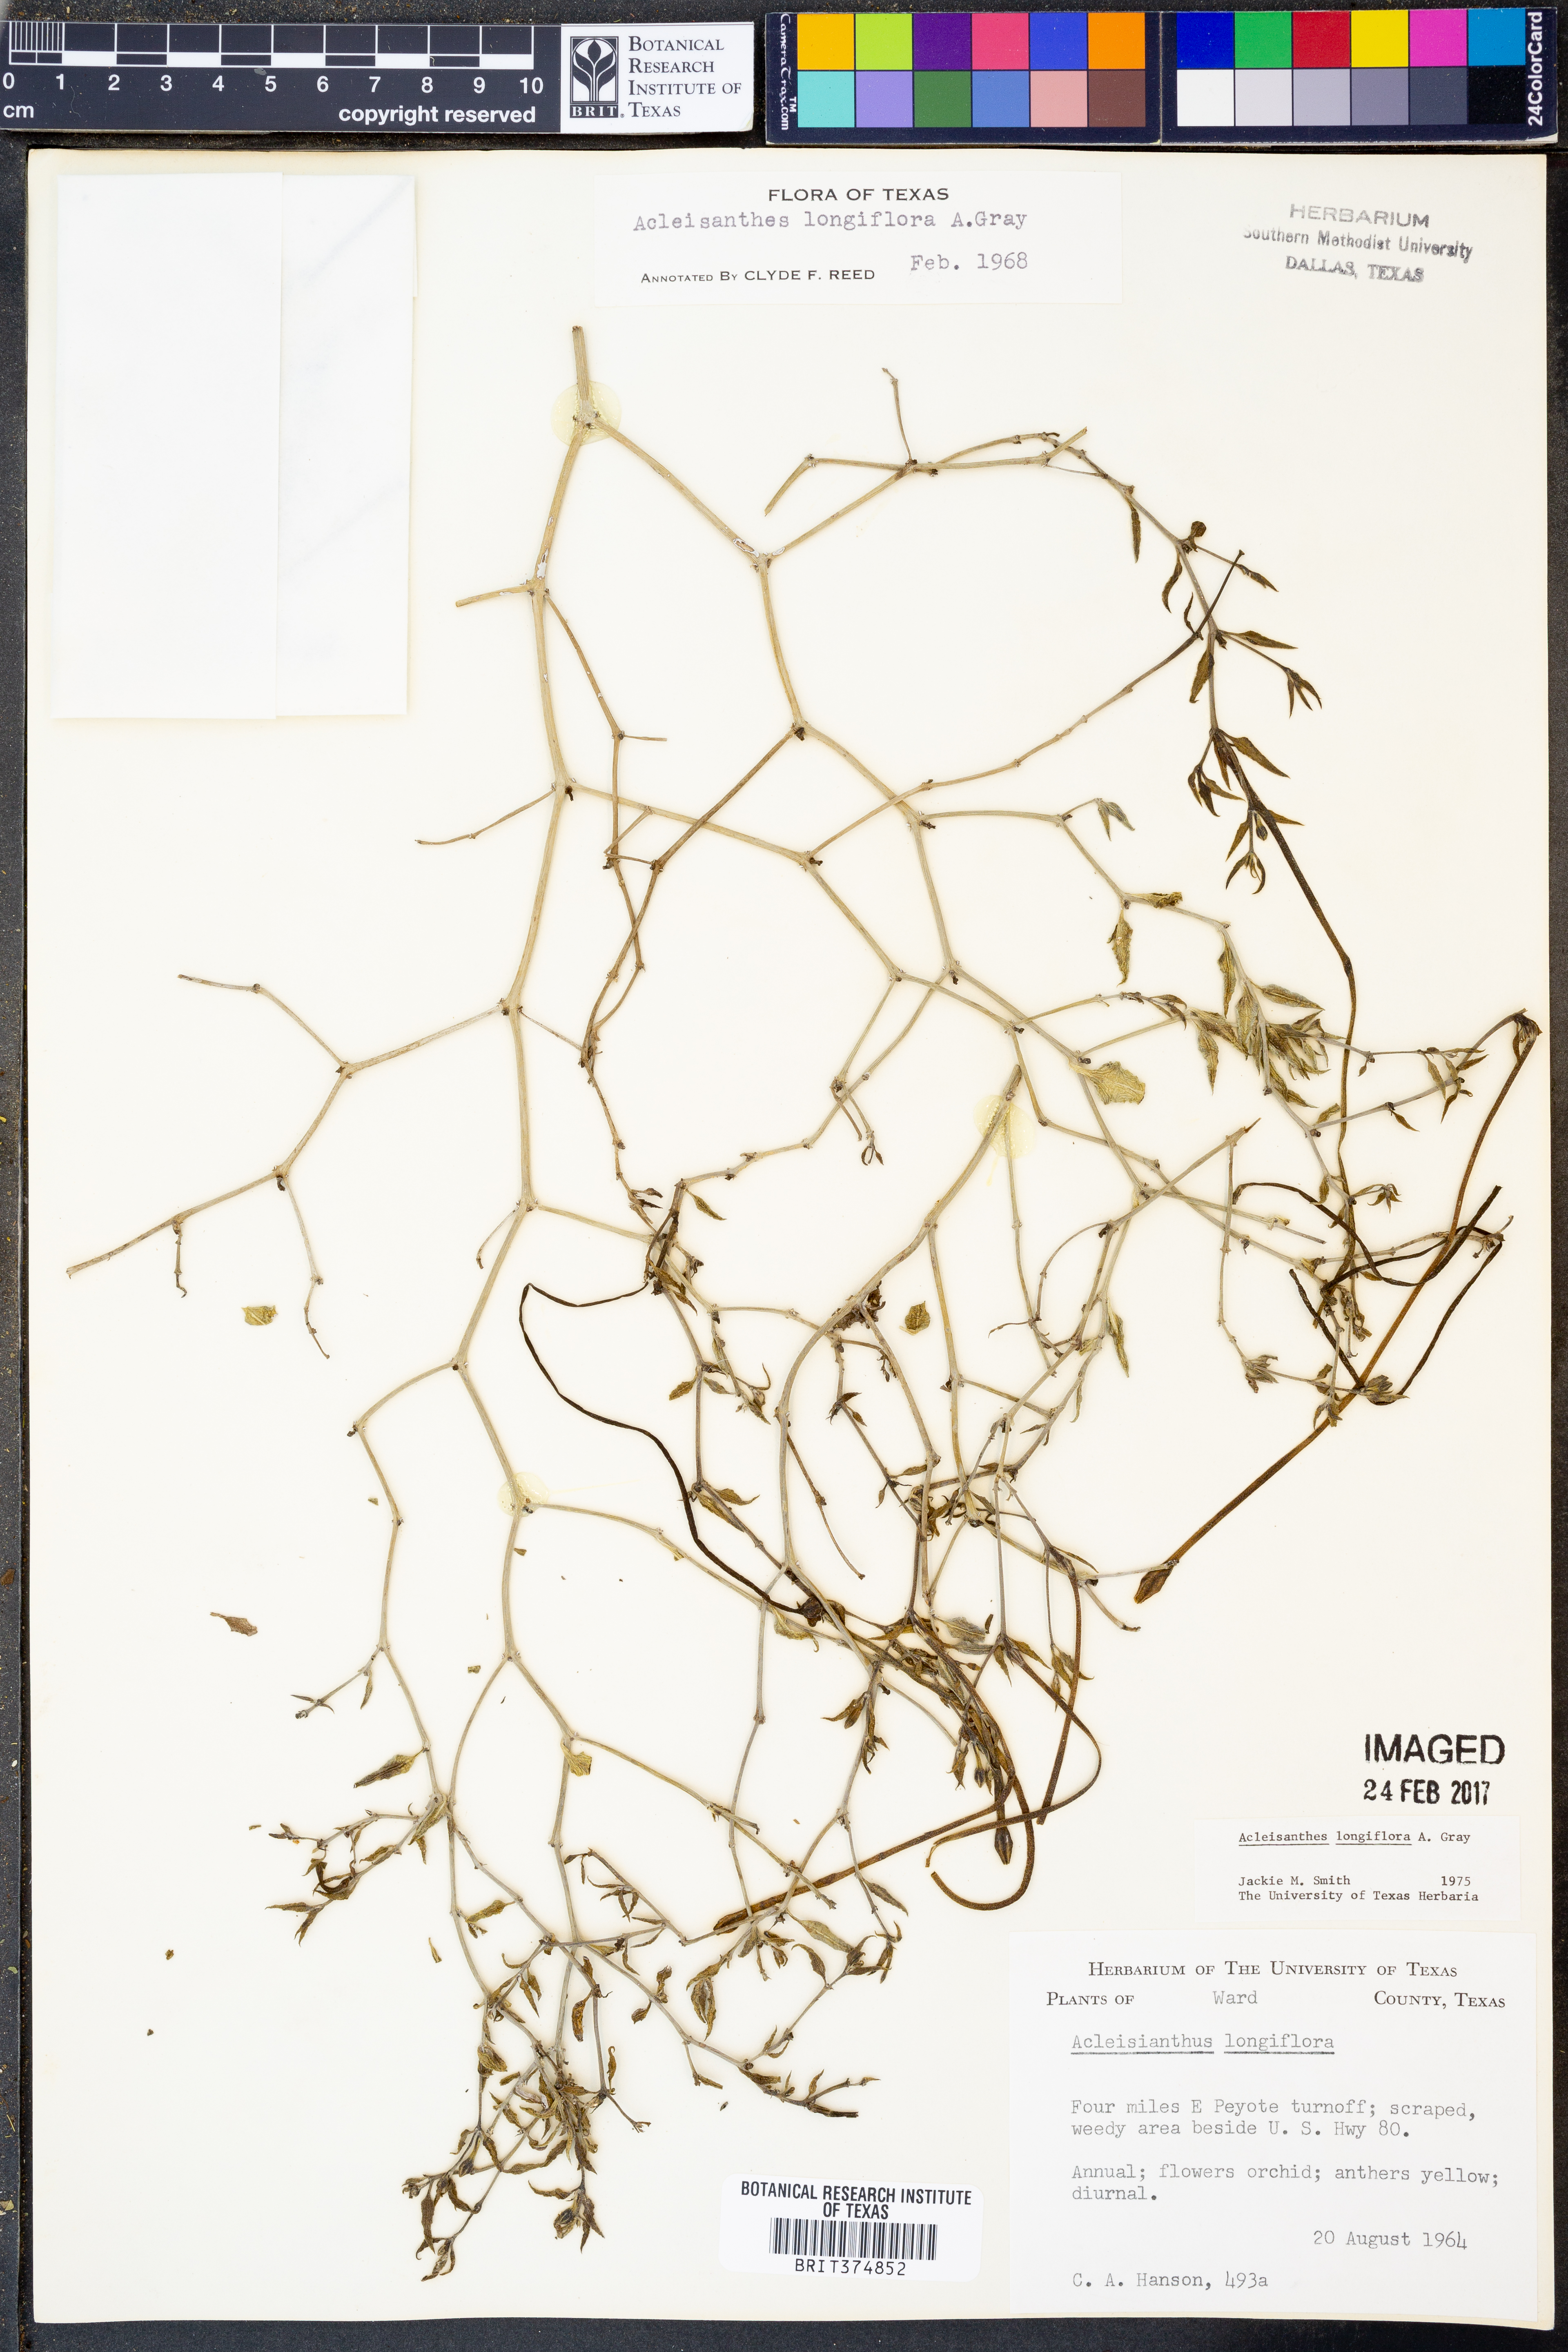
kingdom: Plantae
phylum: Tracheophyta
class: Magnoliopsida
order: Caryophyllales
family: Nyctaginaceae
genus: Acleisanthes
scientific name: Acleisanthes longiflora
